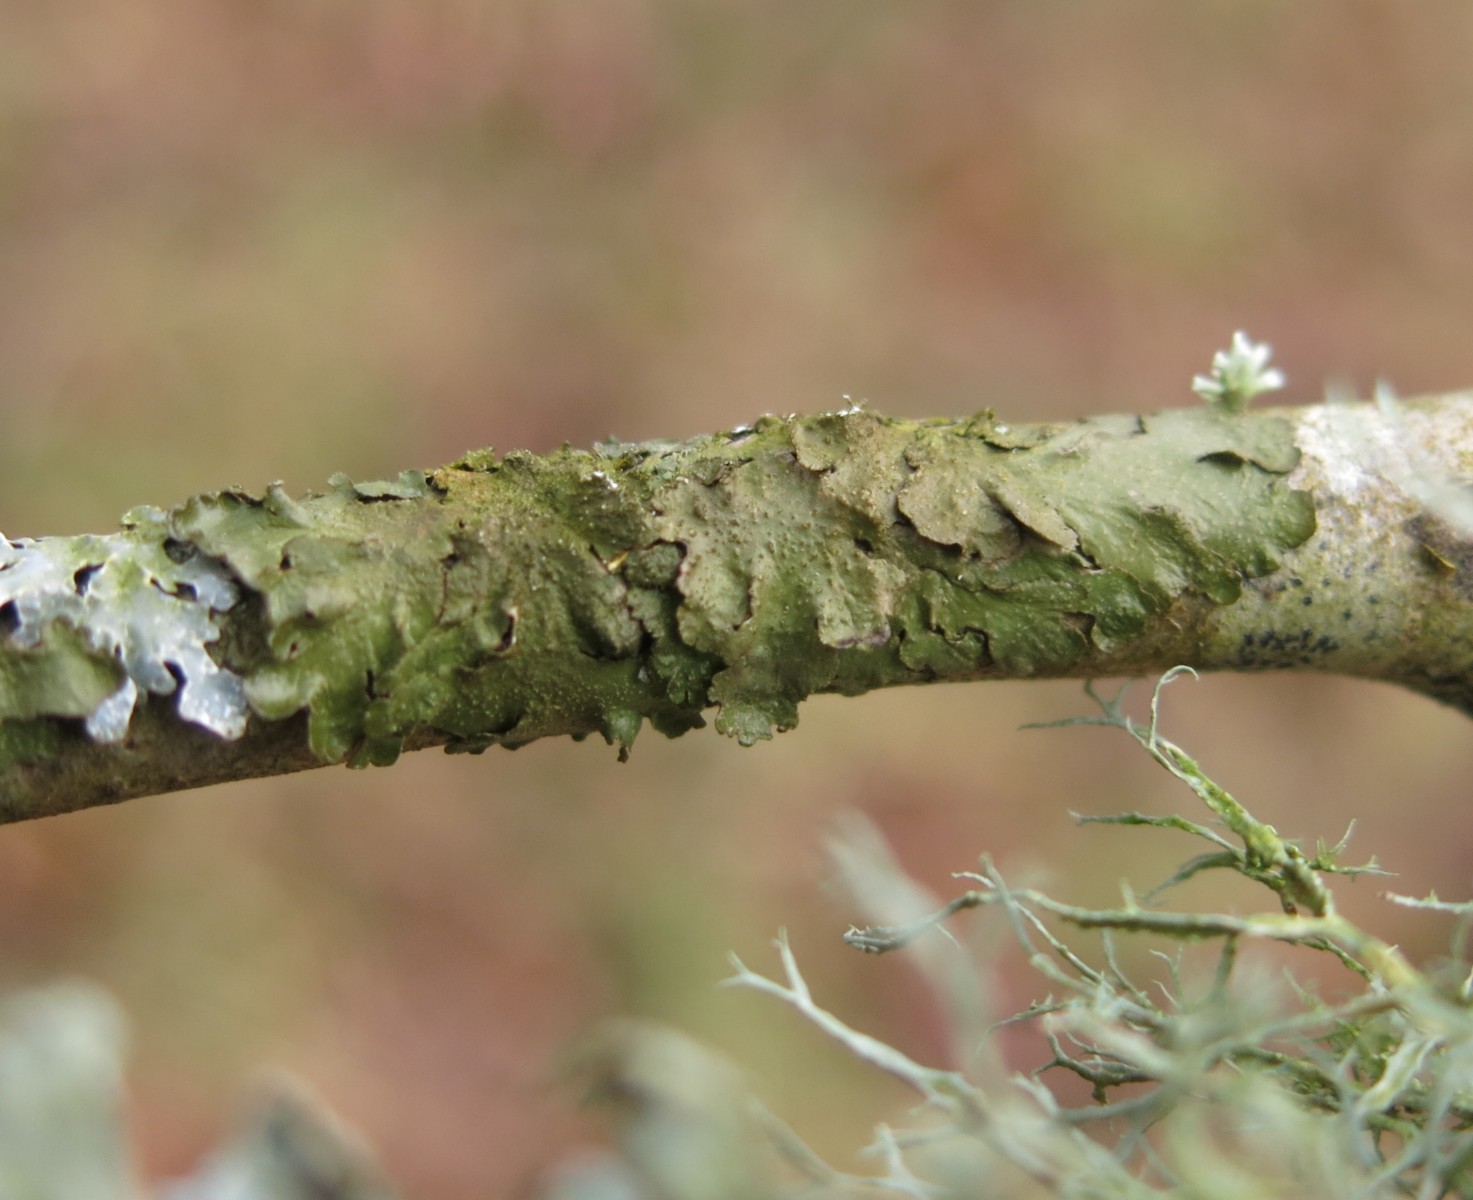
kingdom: Fungi
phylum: Ascomycota
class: Lecanoromycetes
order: Lecanorales
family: Parmeliaceae
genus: Melanelixia
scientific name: Melanelixia subaurifera
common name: guldpudret skållav
